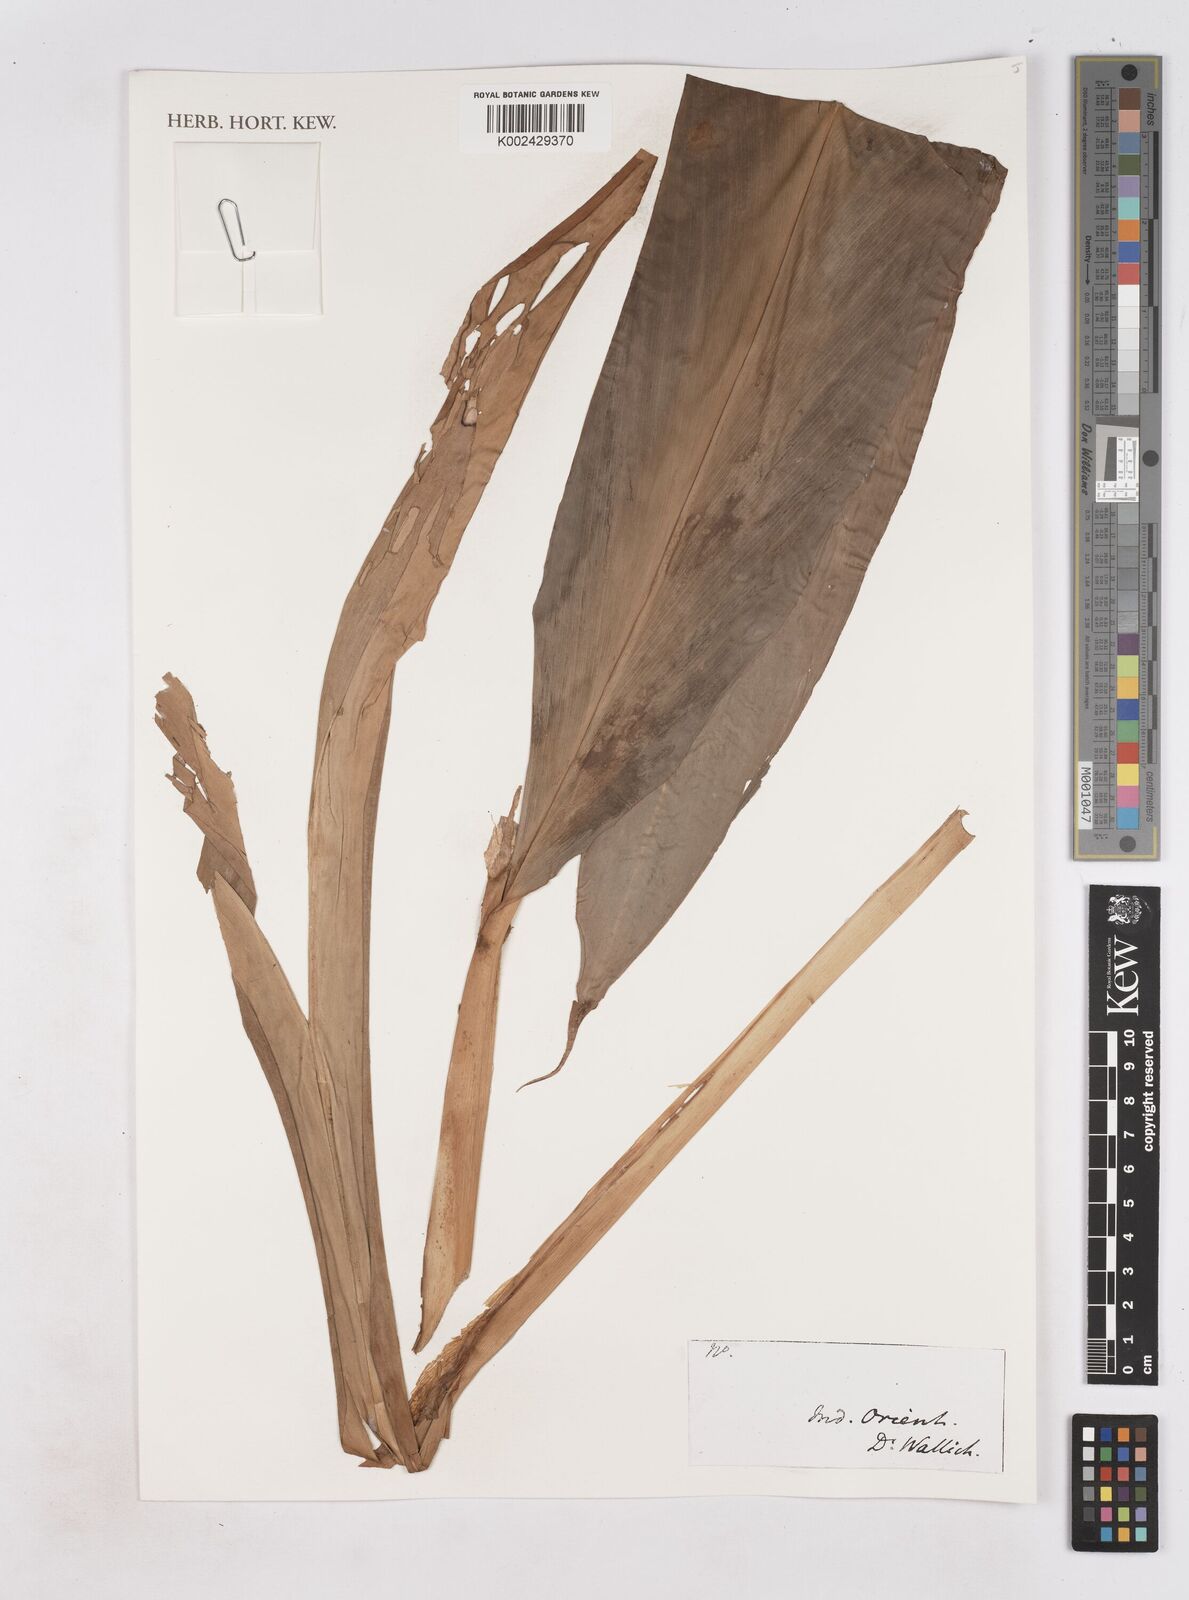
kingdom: Plantae
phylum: Tracheophyta
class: Liliopsida
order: Zingiberales
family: Zingiberaceae
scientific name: Zingiberaceae
